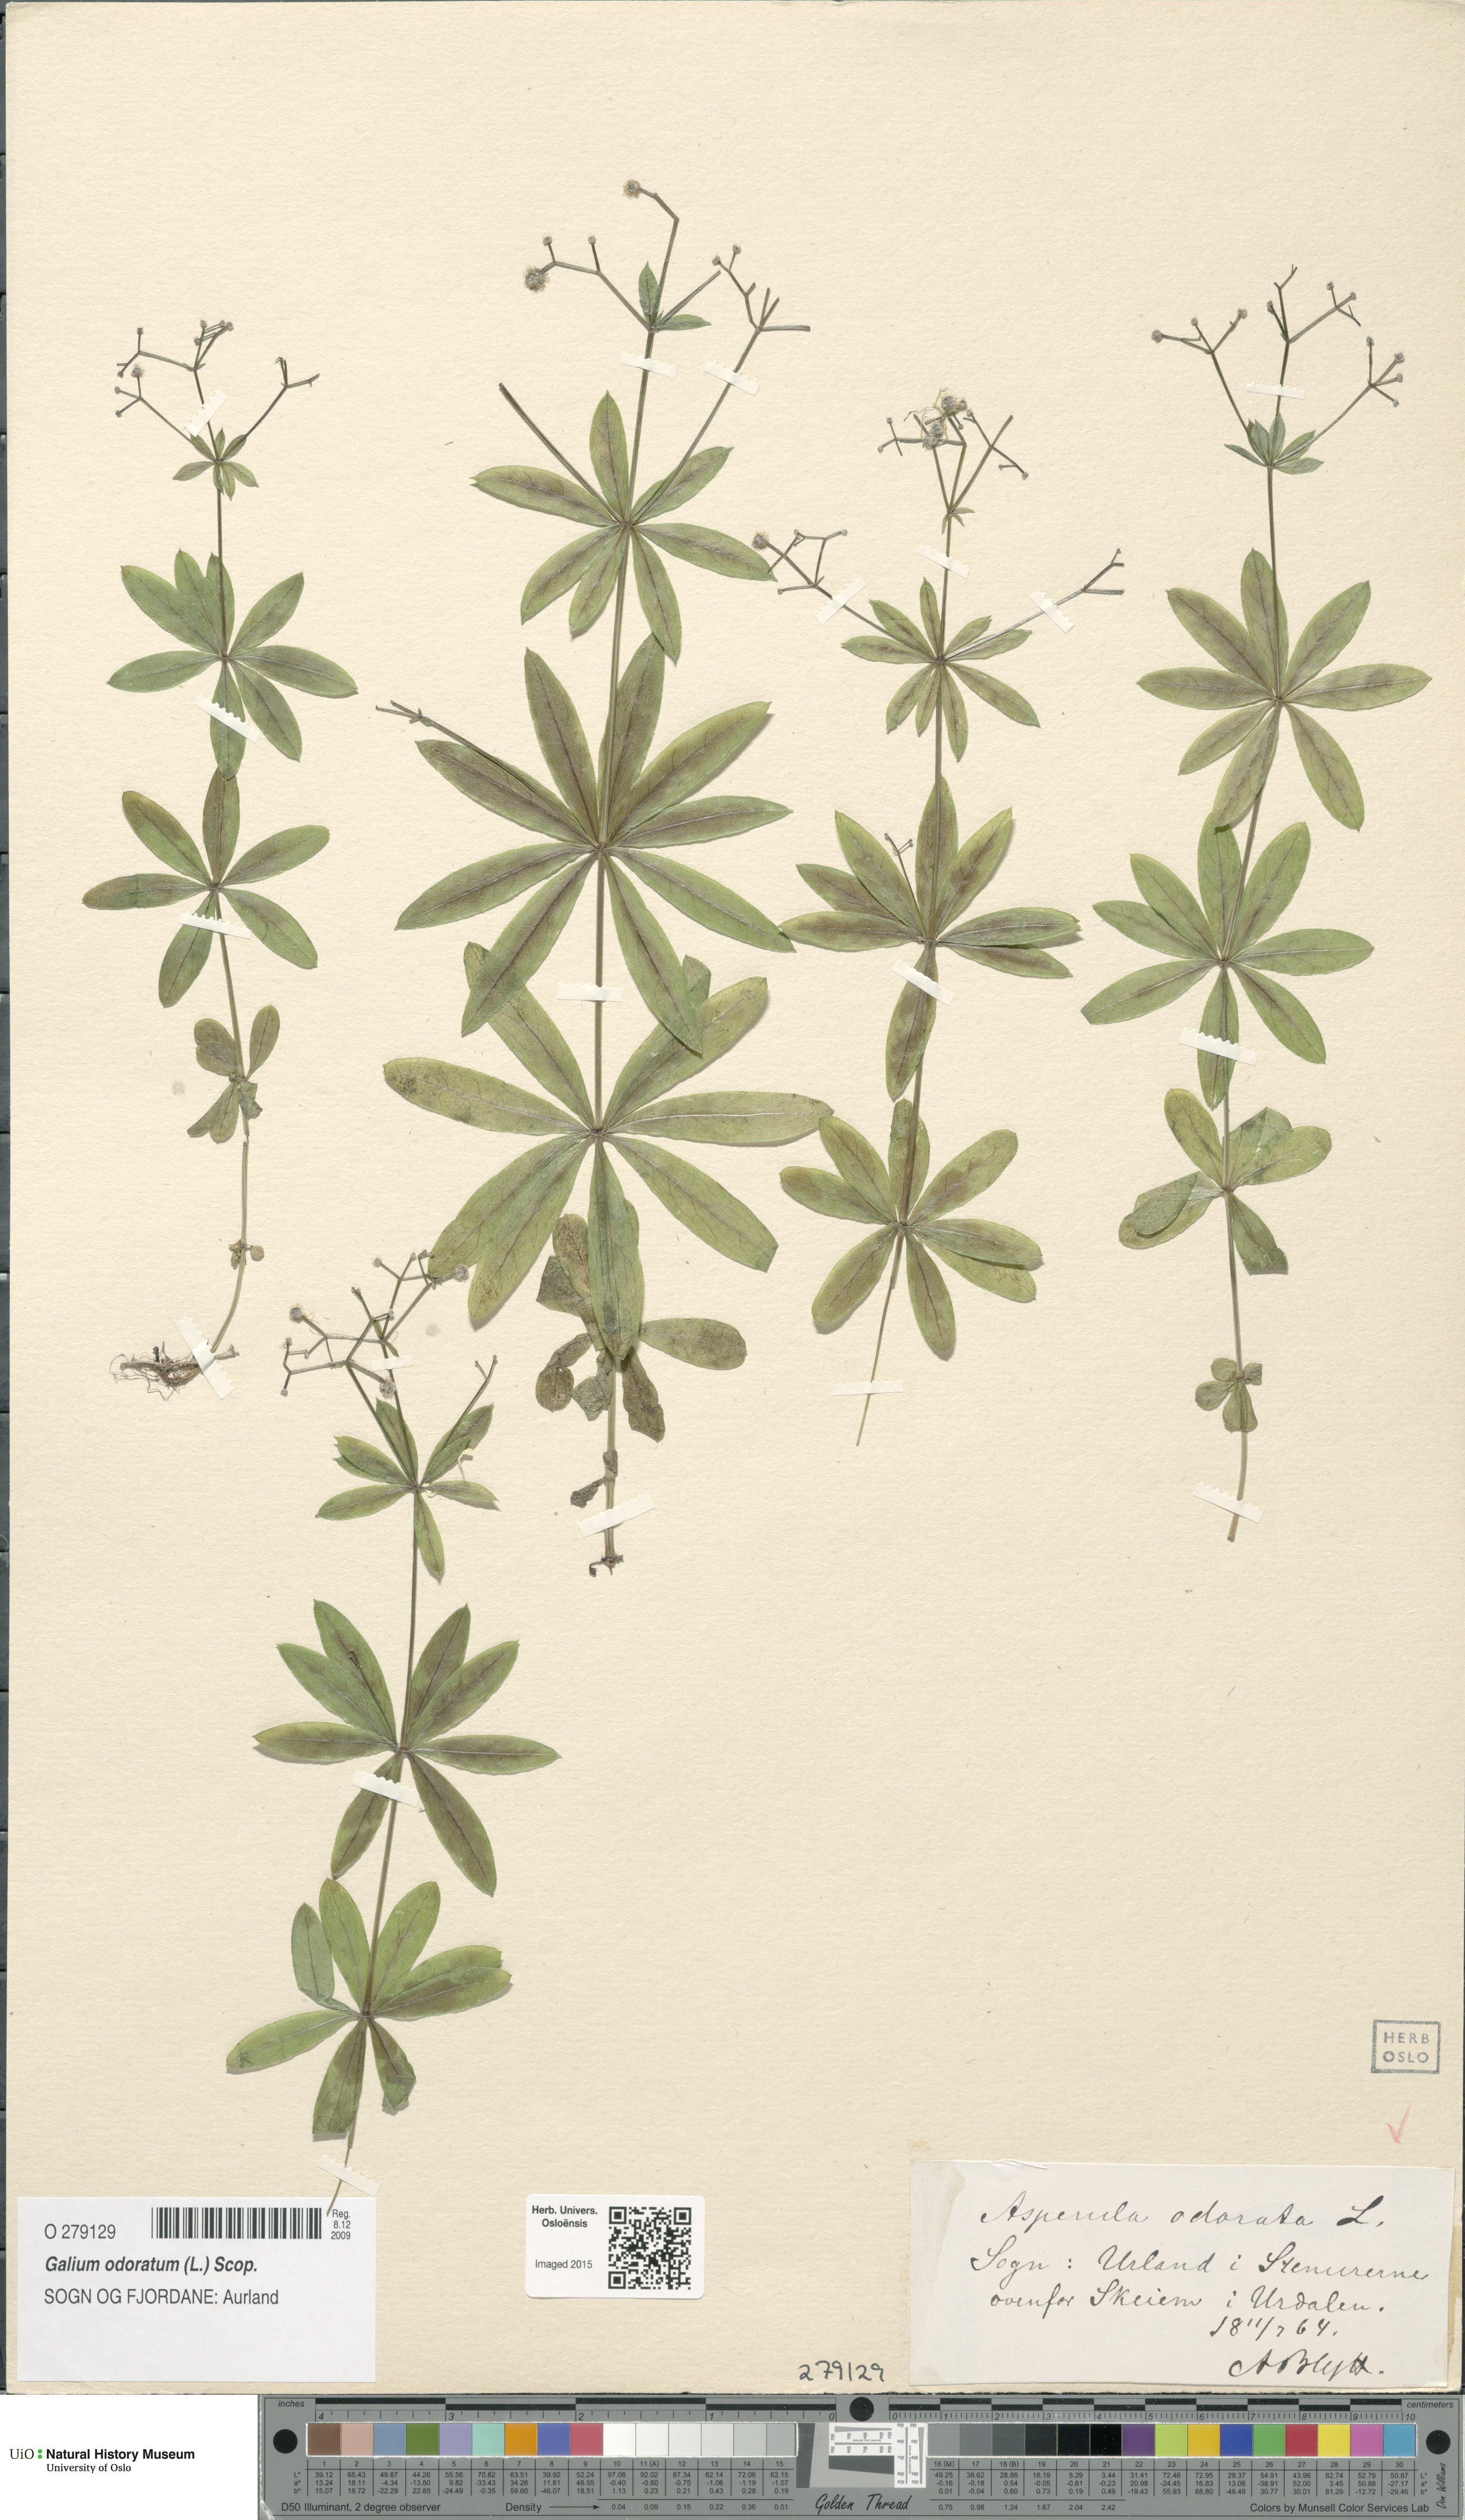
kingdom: Plantae
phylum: Tracheophyta
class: Magnoliopsida
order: Gentianales
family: Rubiaceae
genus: Galium
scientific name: Galium odoratum
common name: Sweet woodruff
